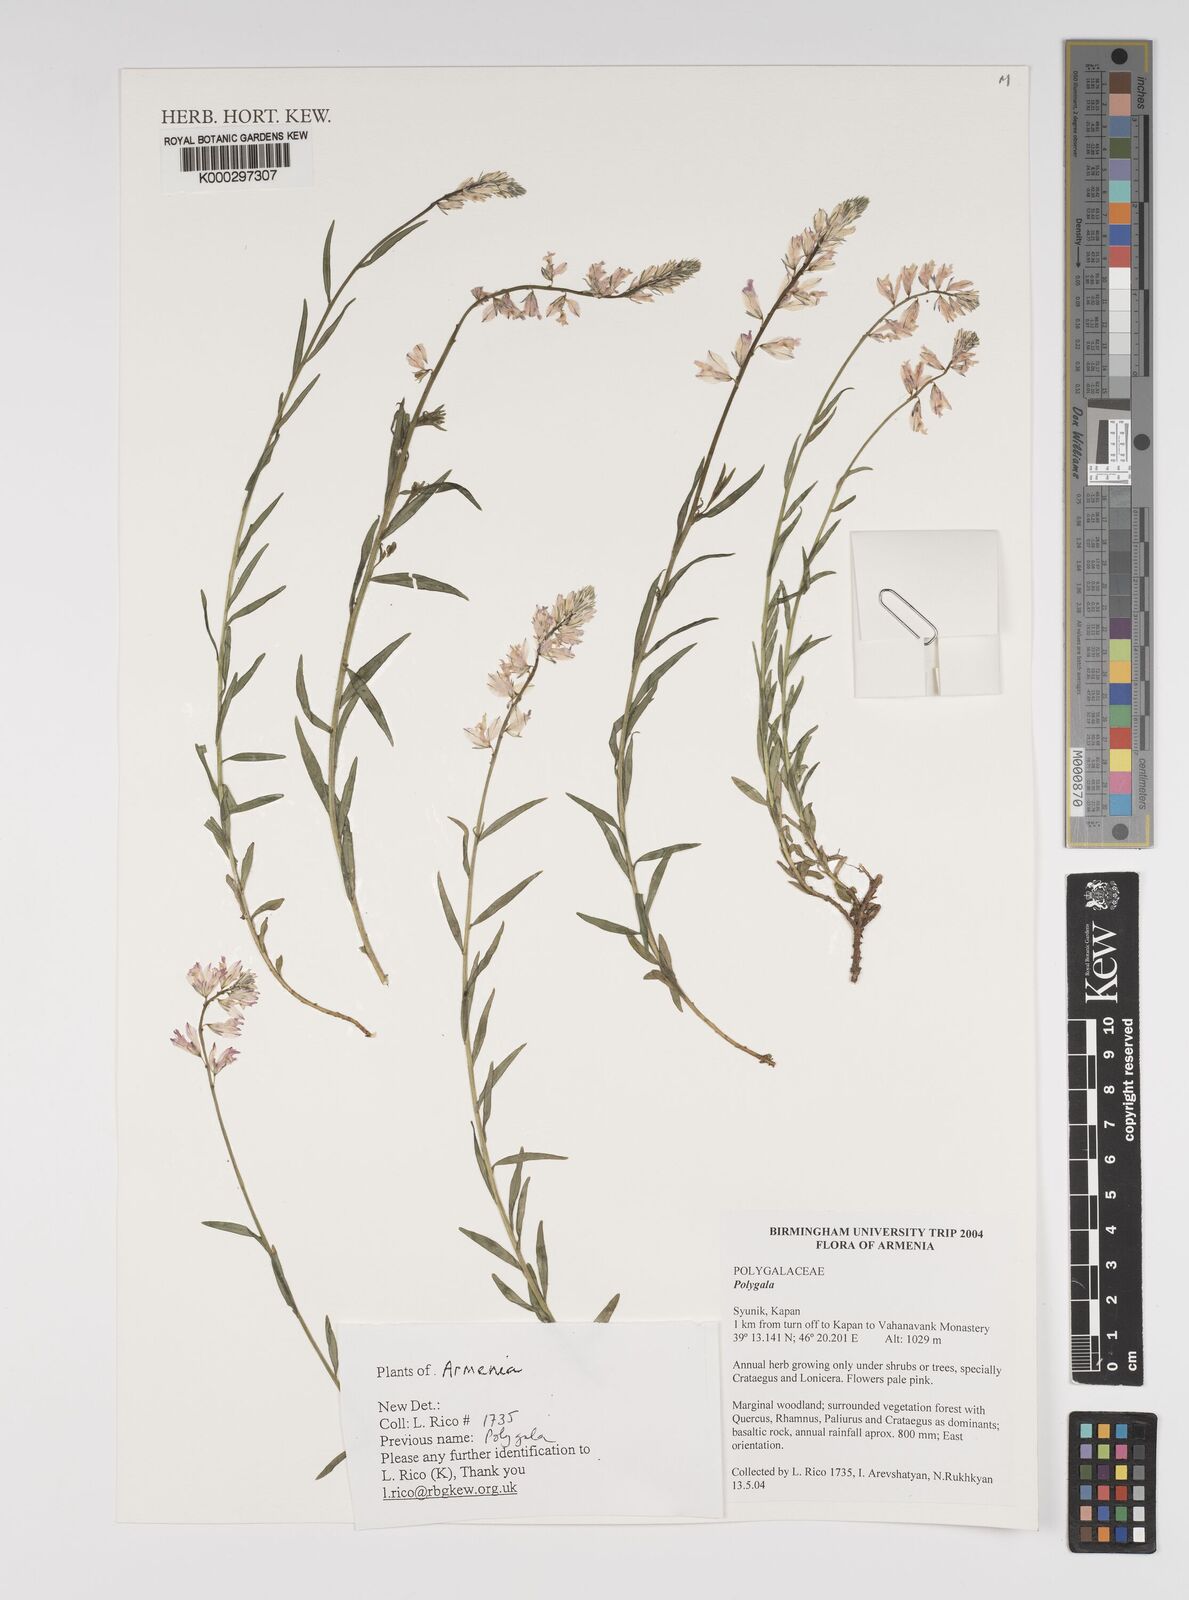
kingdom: Plantae
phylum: Tracheophyta
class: Magnoliopsida
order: Fabales
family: Polygalaceae
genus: Polygala
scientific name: Polygala
